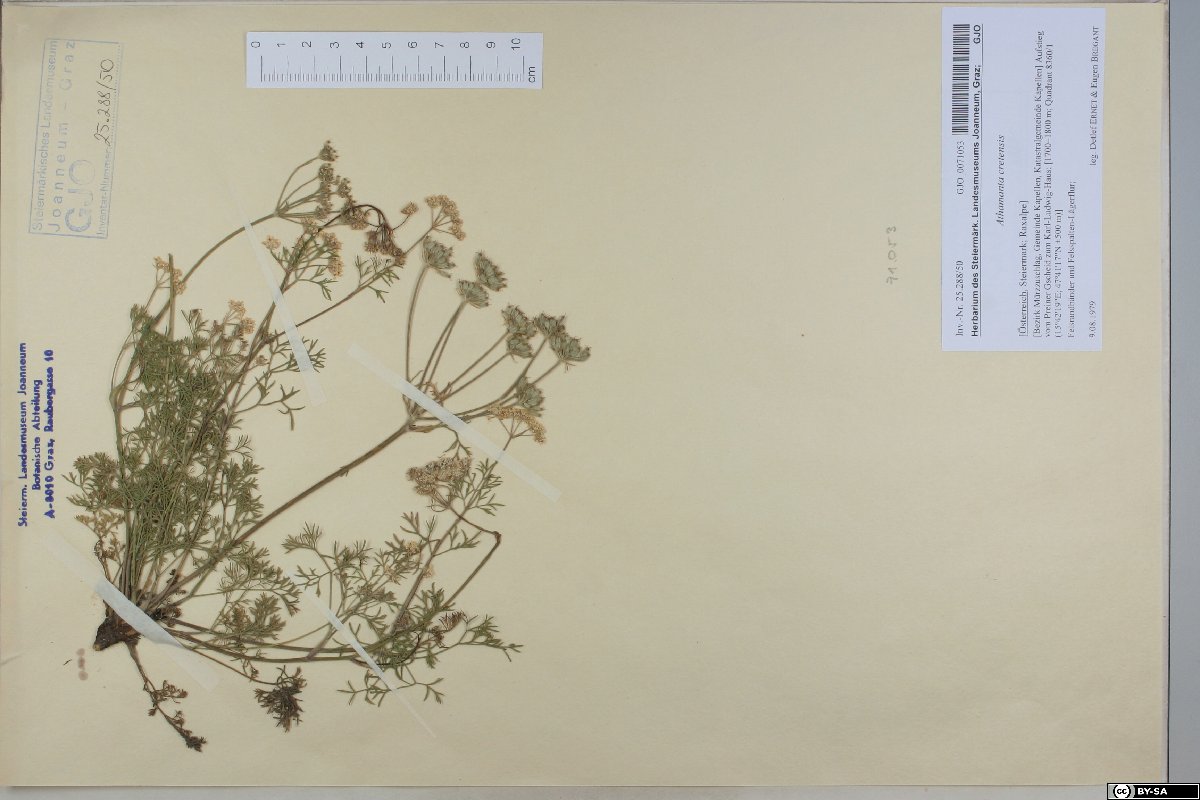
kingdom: Plantae
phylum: Tracheophyta
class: Magnoliopsida
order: Apiales
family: Apiaceae
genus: Athamanta
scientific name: Athamanta cretensis
